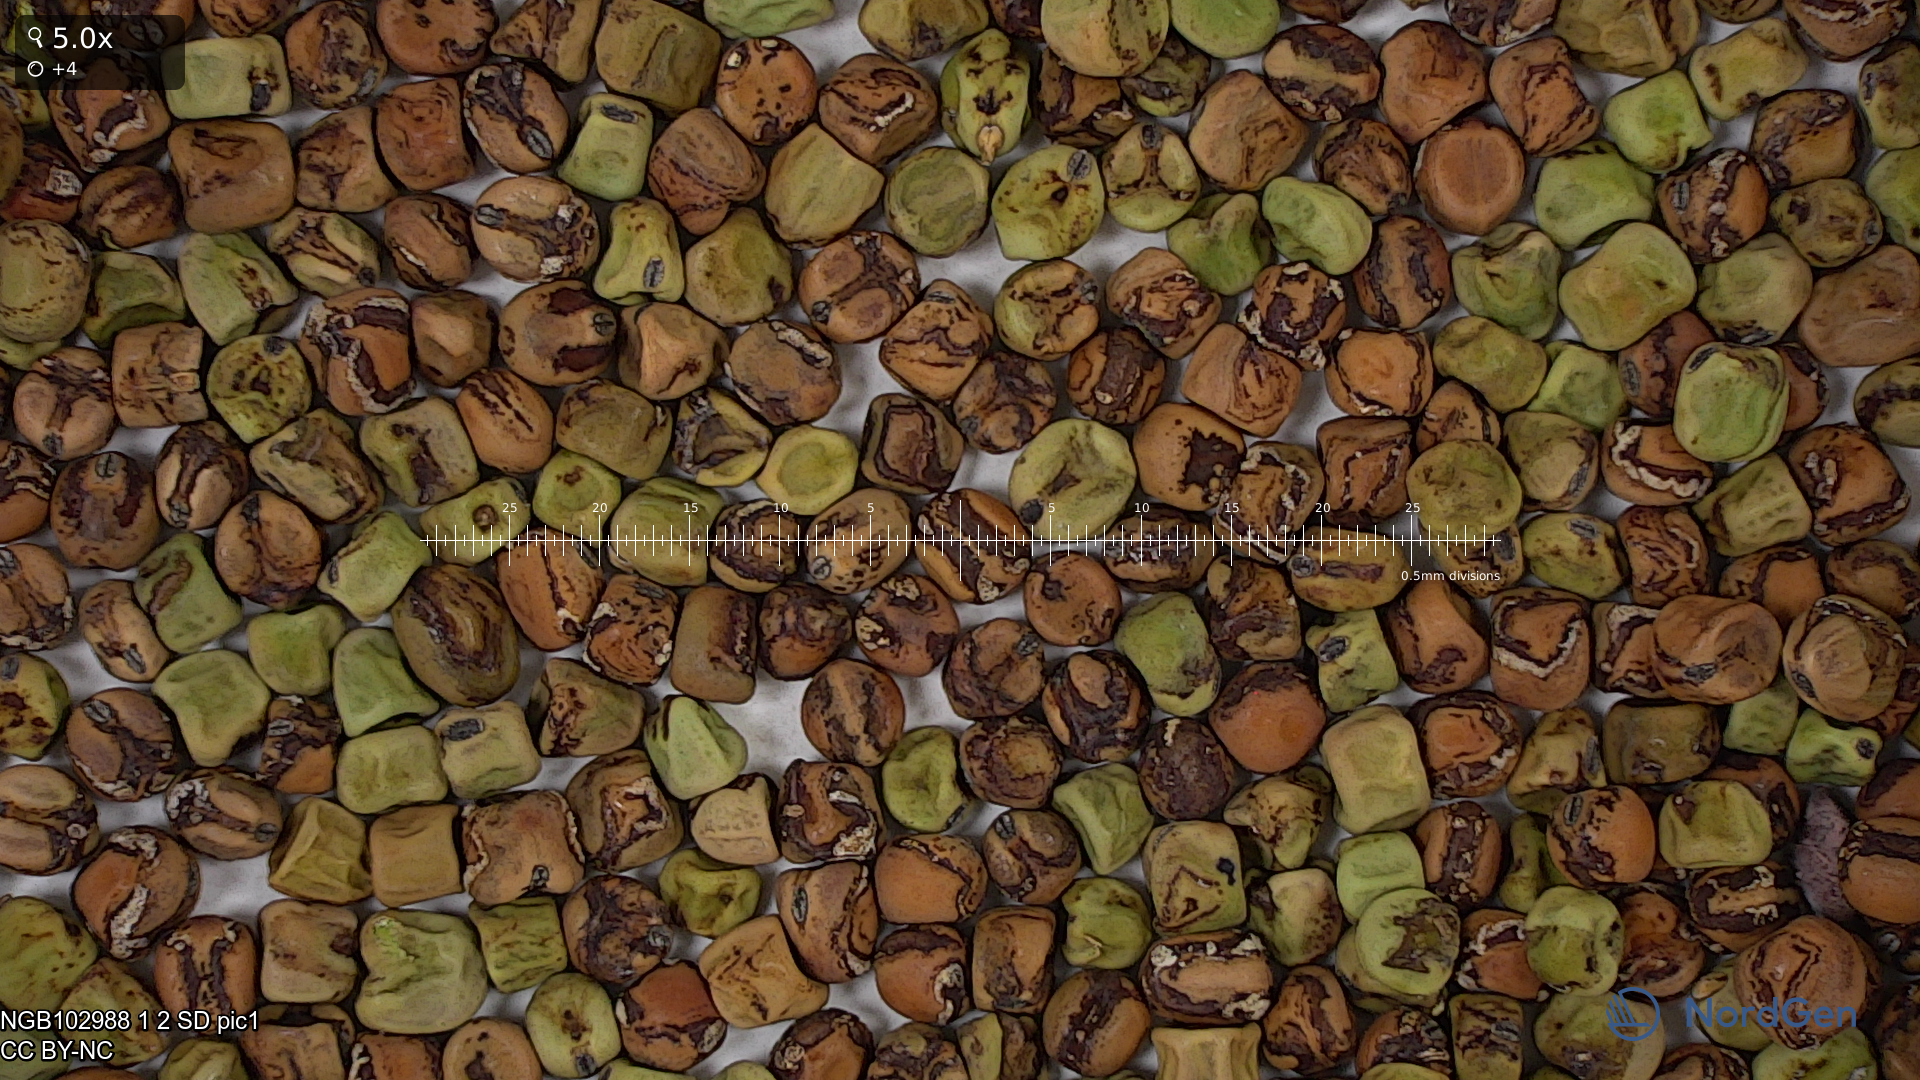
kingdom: Plantae
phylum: Tracheophyta
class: Magnoliopsida
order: Fabales
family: Fabaceae
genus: Lathyrus
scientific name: Lathyrus oleraceus
